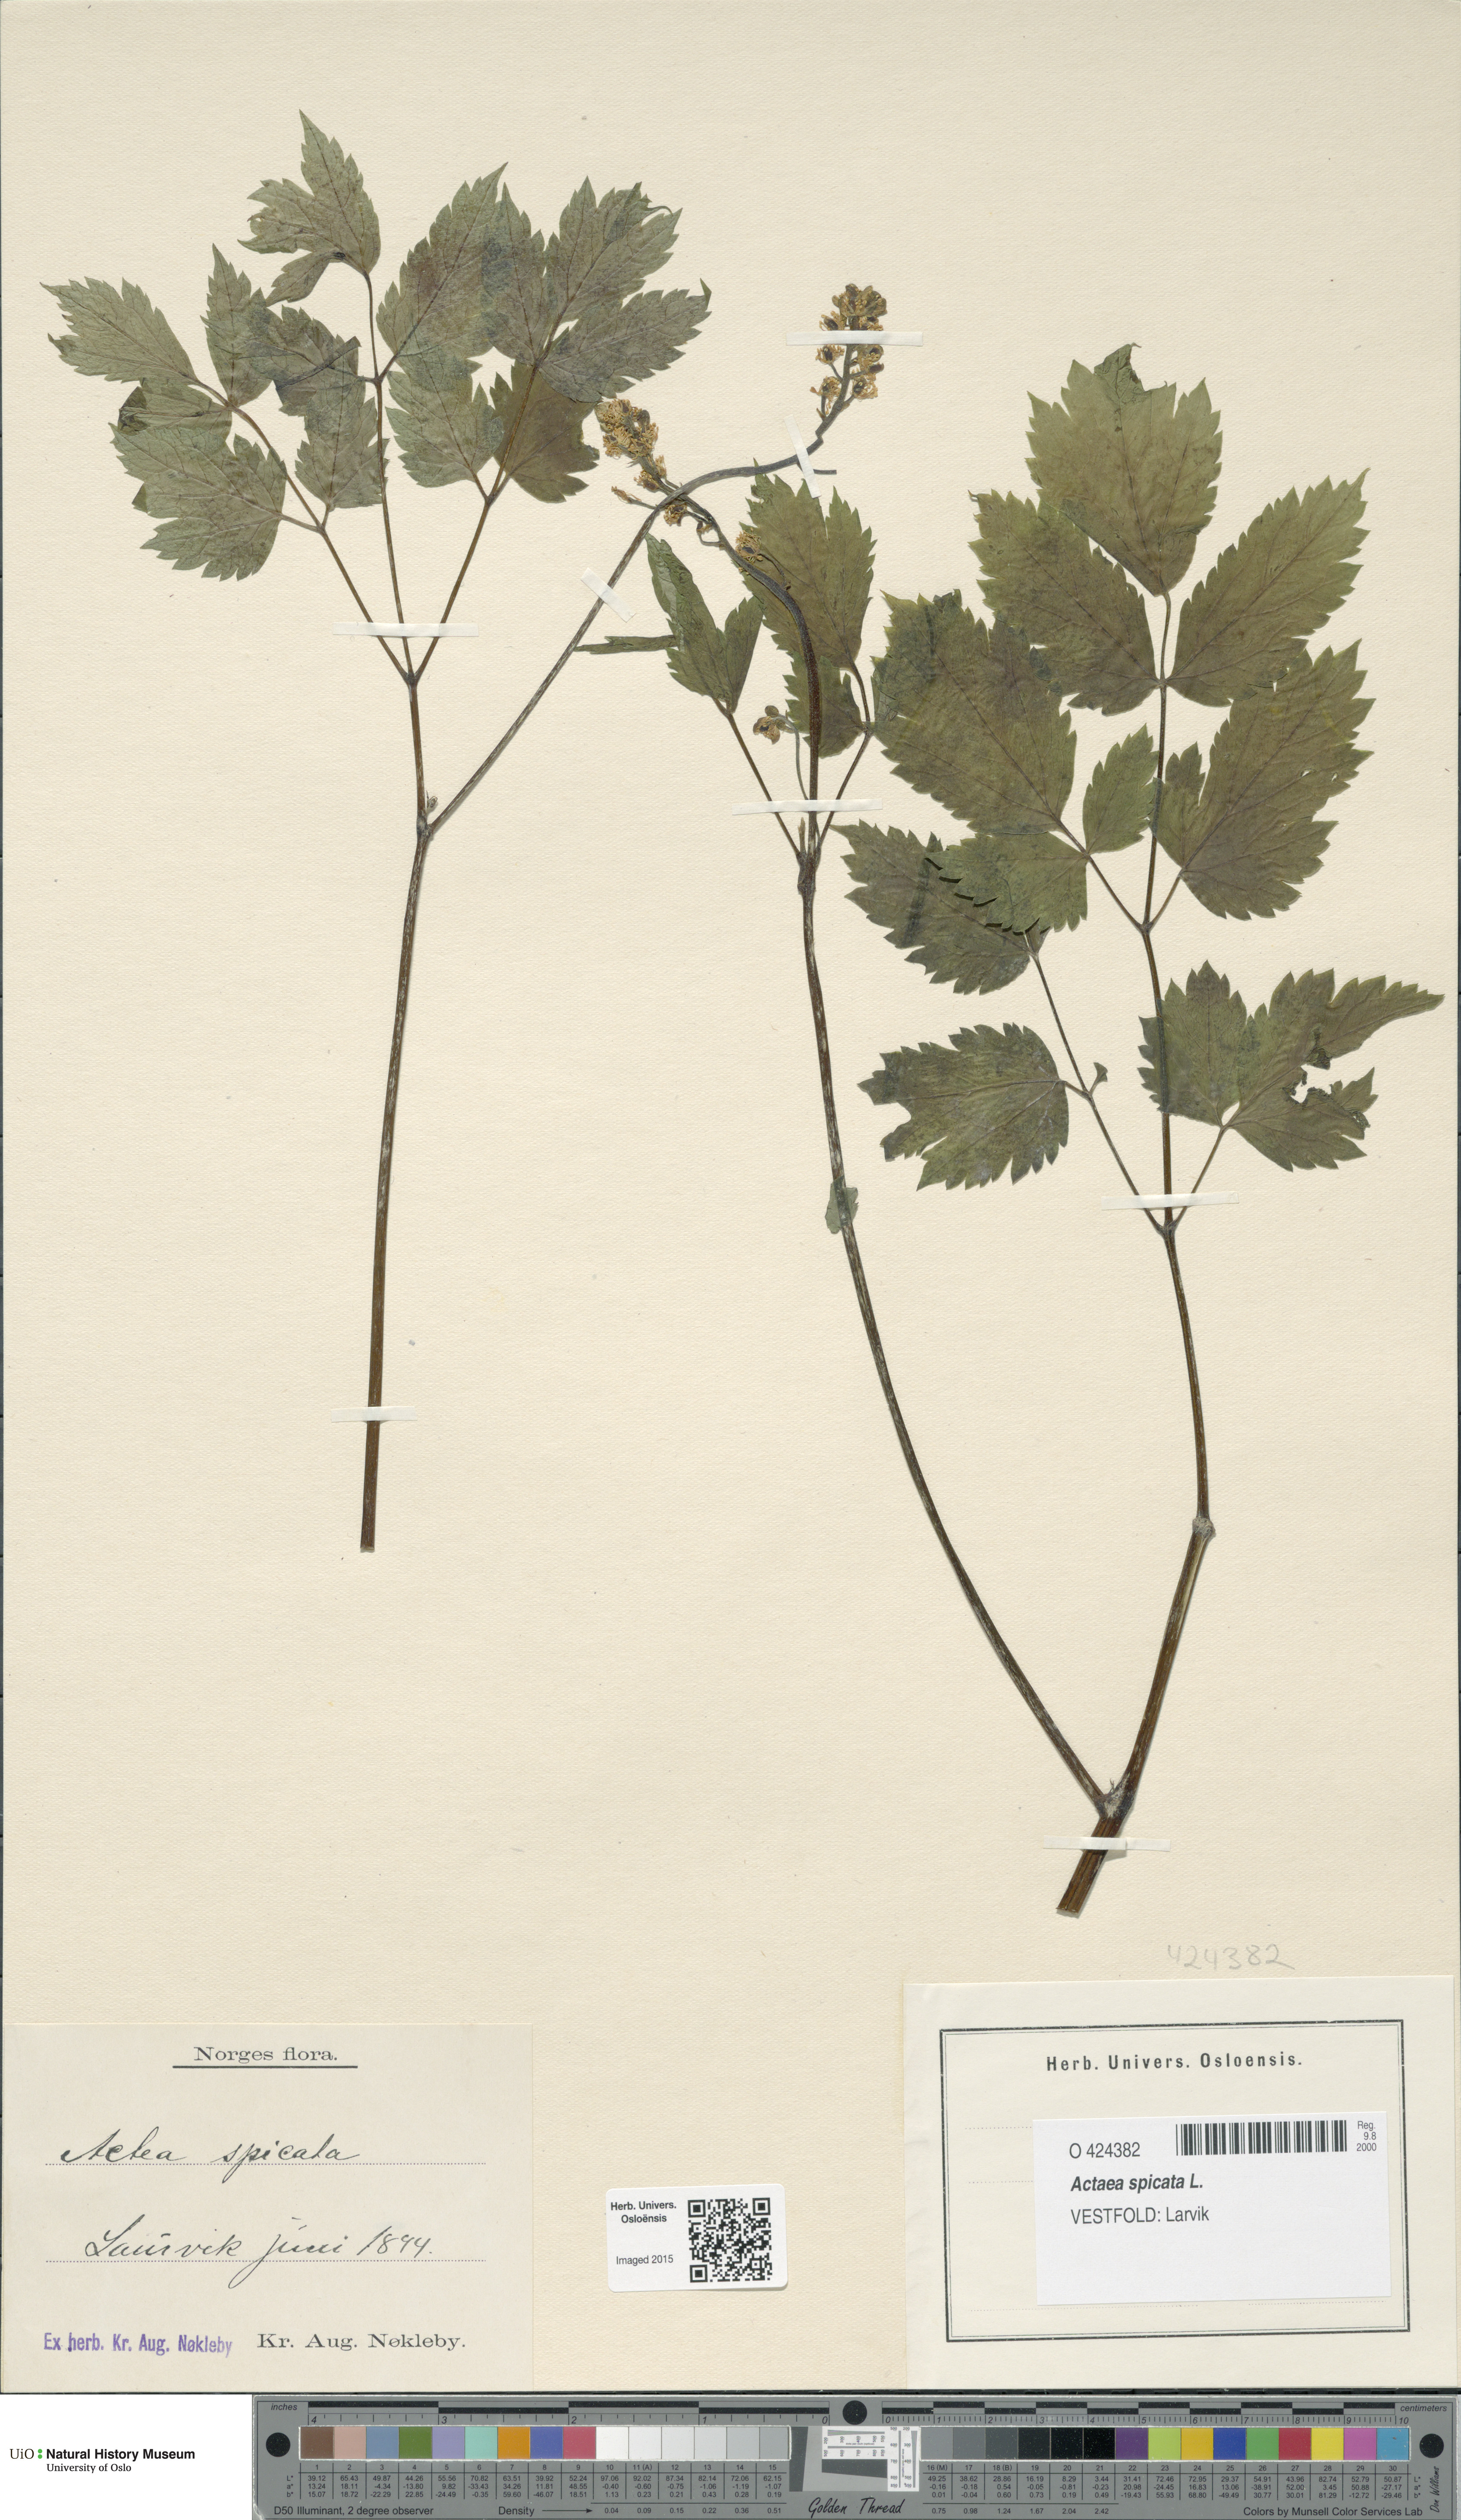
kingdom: Plantae
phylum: Tracheophyta
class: Magnoliopsida
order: Ranunculales
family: Ranunculaceae
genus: Actaea
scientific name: Actaea spicata
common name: Baneberry
